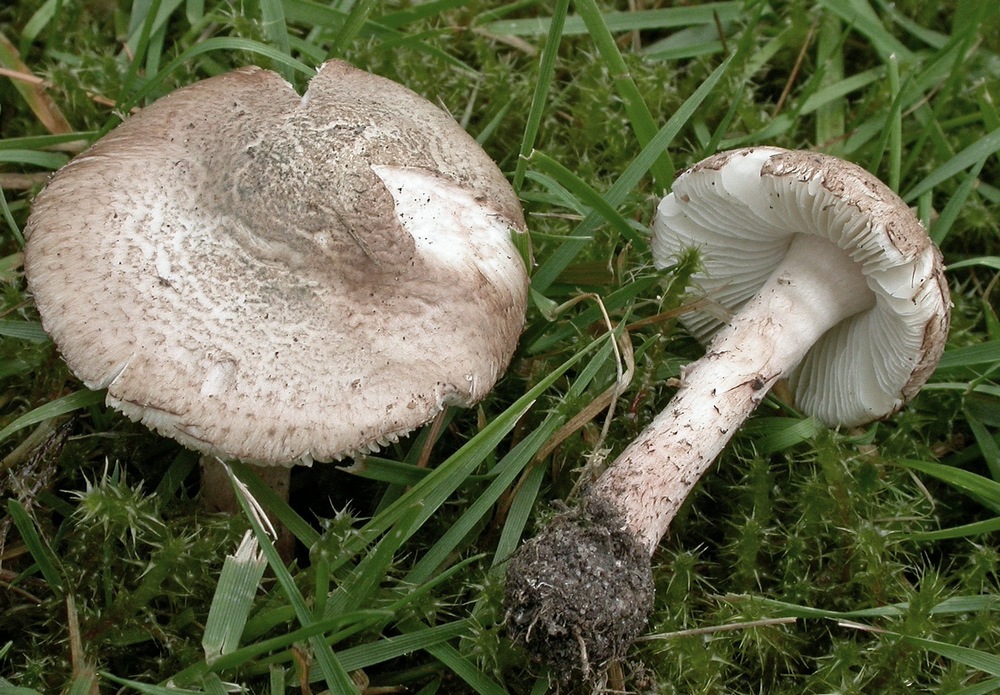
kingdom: Fungi
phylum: Basidiomycota
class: Agaricomycetes
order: Agaricales
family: Agaricaceae
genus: Lepiota
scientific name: Lepiota brunneoincarnata
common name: brunrød parasolhat
